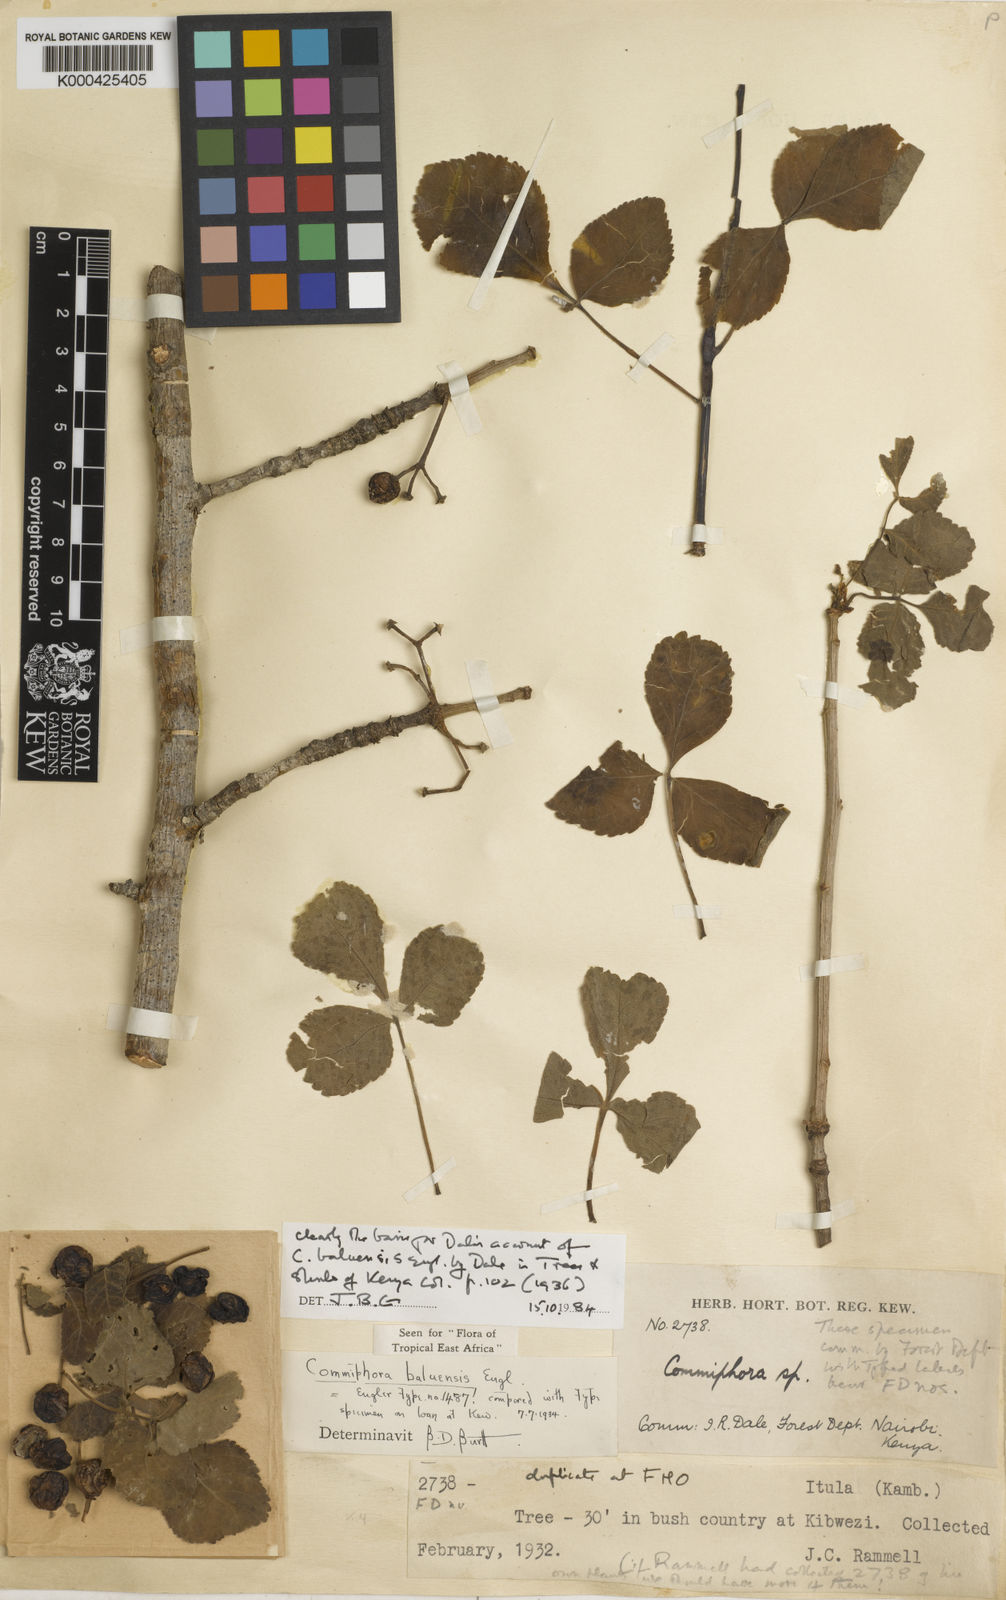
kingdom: Plantae
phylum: Tracheophyta
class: Magnoliopsida
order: Sapindales
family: Burseraceae
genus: Commiphora
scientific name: Commiphora baluensis
